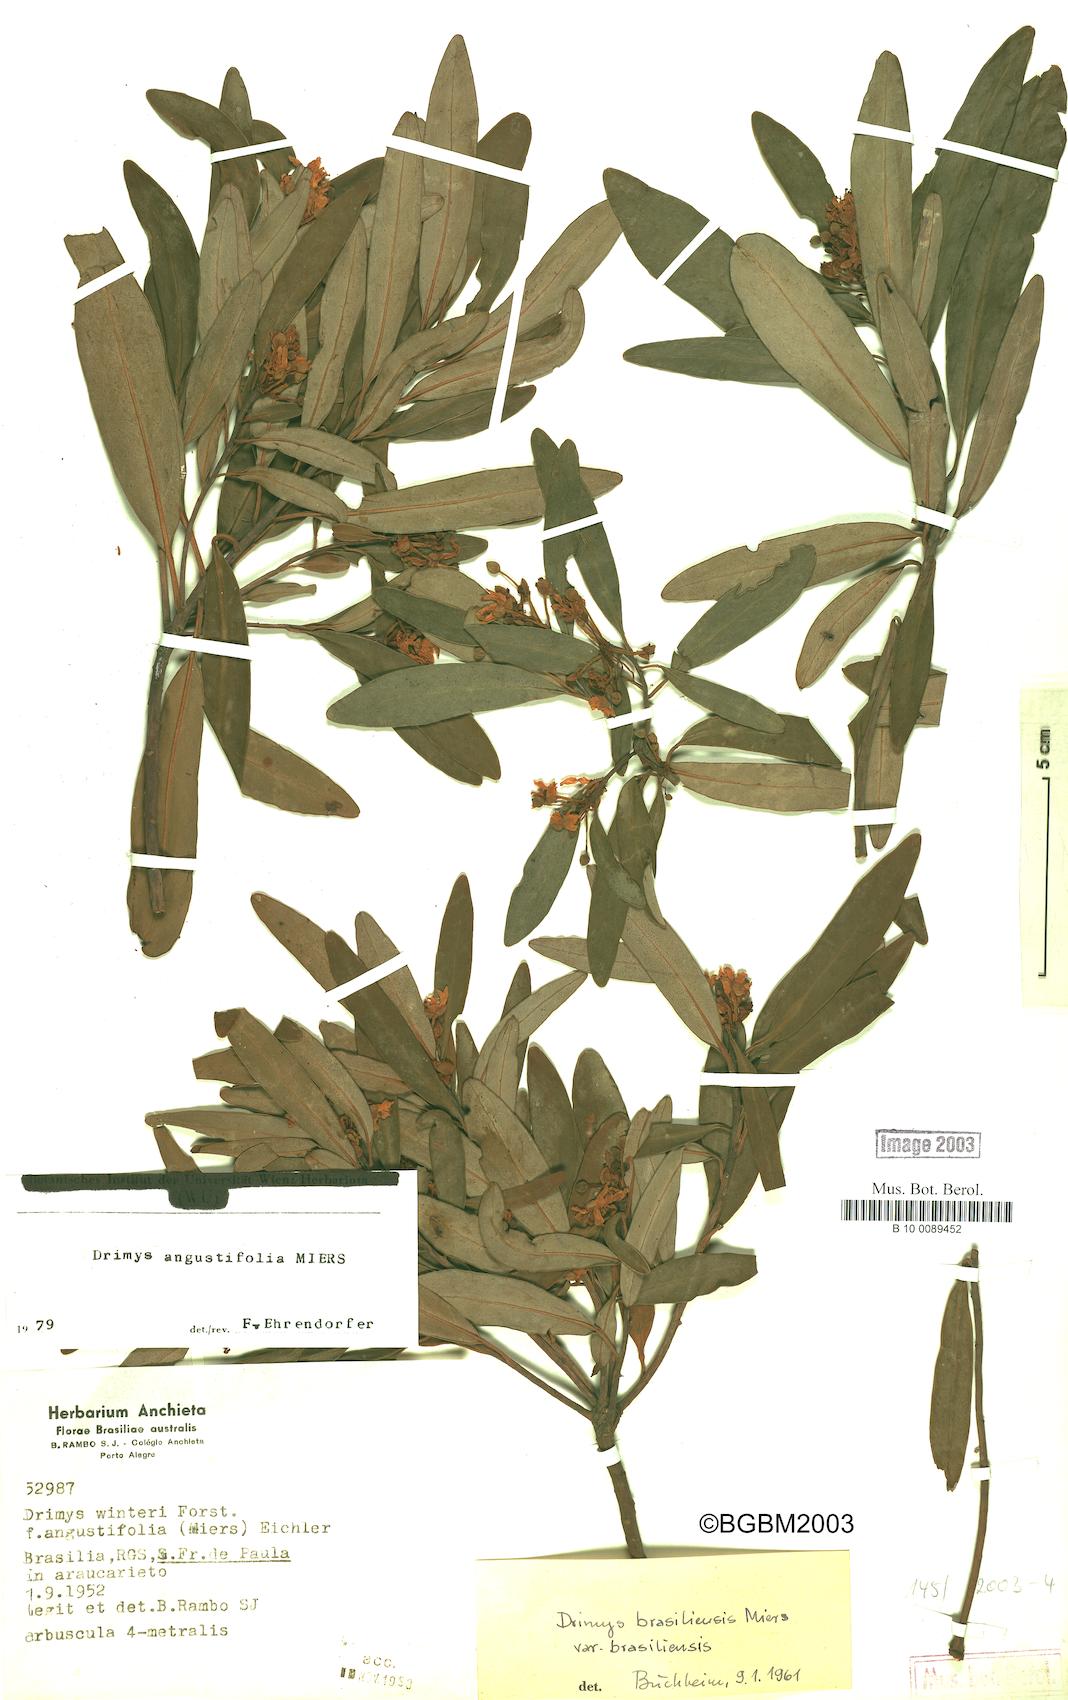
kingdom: Plantae
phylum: Tracheophyta
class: Magnoliopsida
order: Canellales
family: Winteraceae
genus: Drimys
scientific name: Drimys angustifolia
